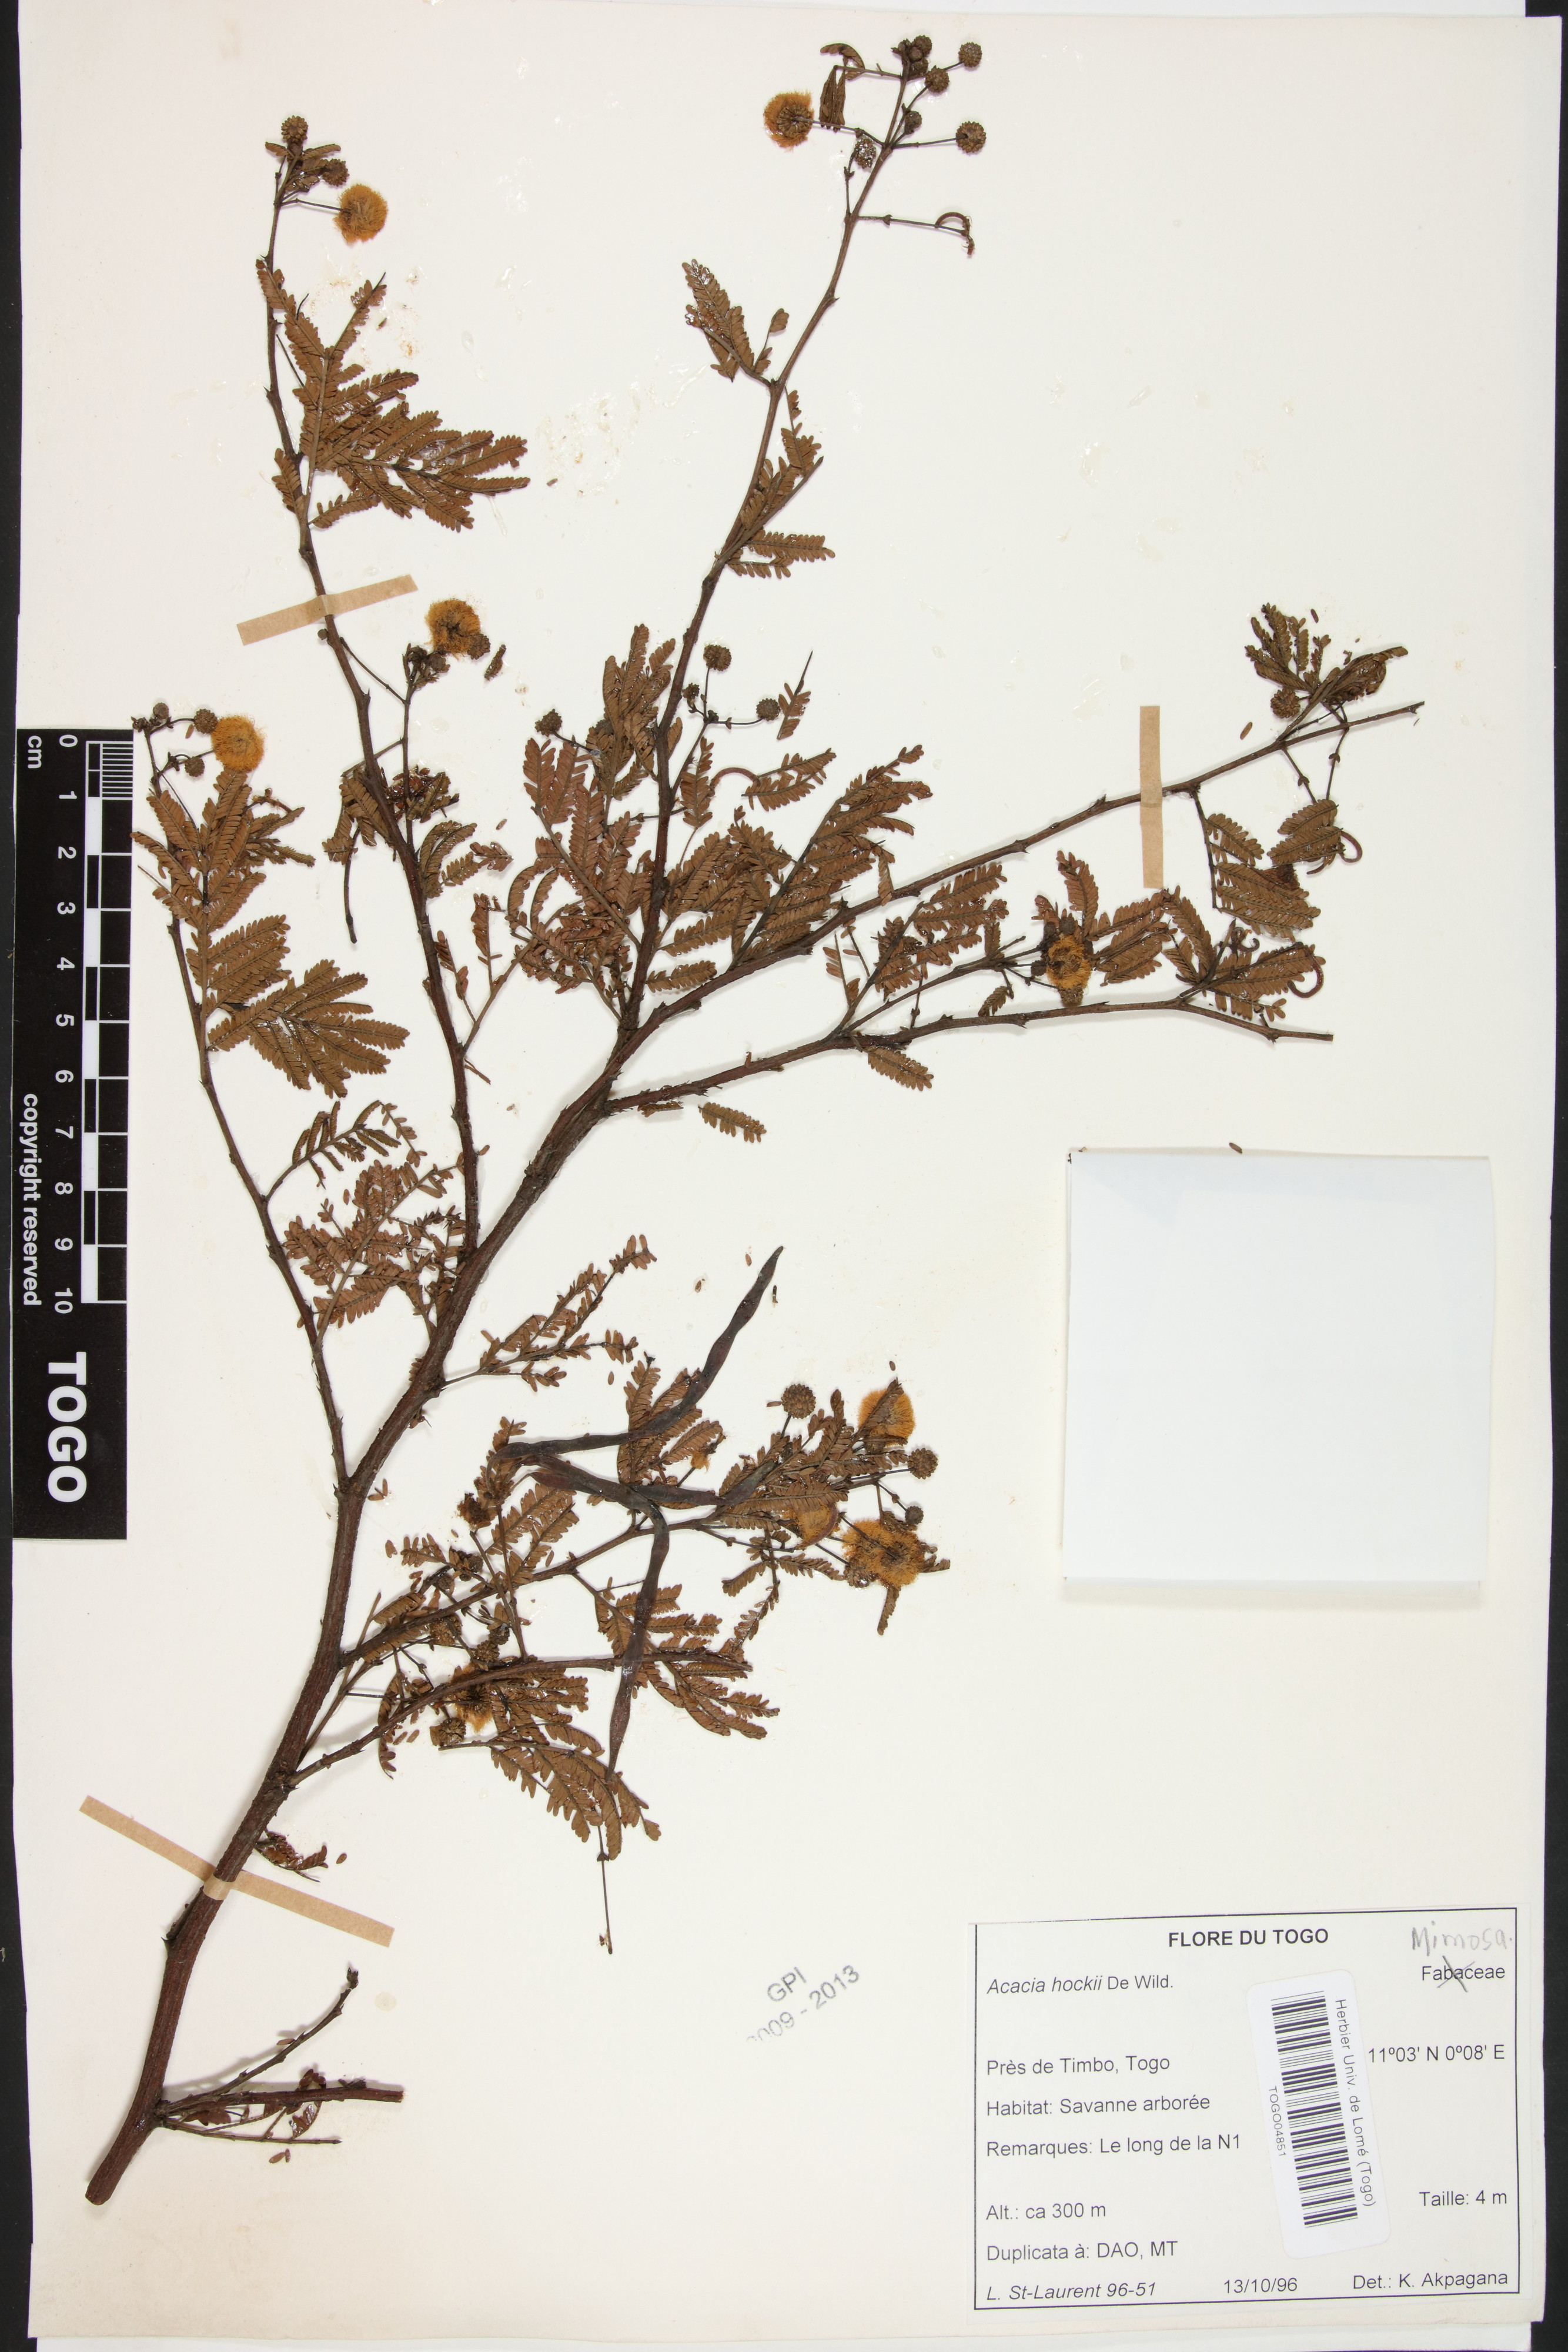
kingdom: Plantae
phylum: Tracheophyta
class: Magnoliopsida
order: Fabales
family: Fabaceae
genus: Vachellia
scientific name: Vachellia hockii
